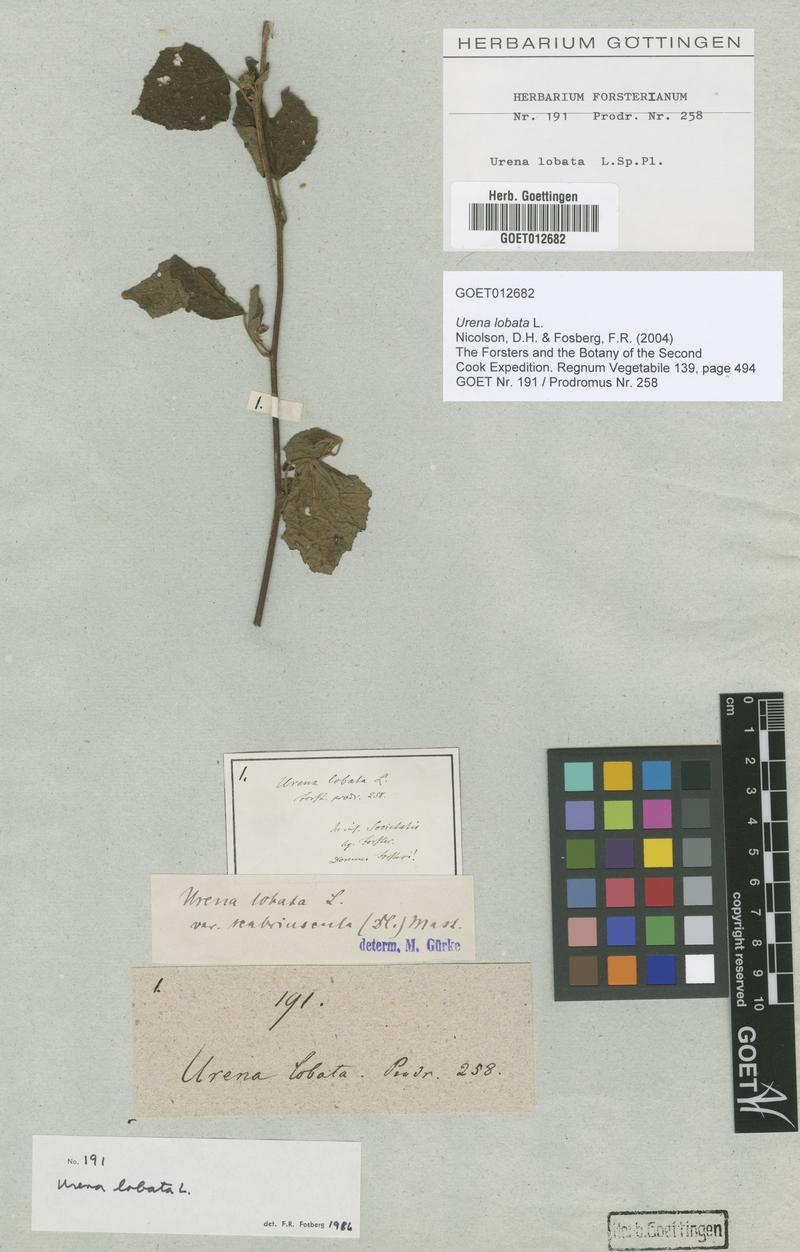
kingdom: Plantae
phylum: Tracheophyta
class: Magnoliopsida
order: Malvales
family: Malvaceae
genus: Urena
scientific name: Urena lobata
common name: Caesarweed
